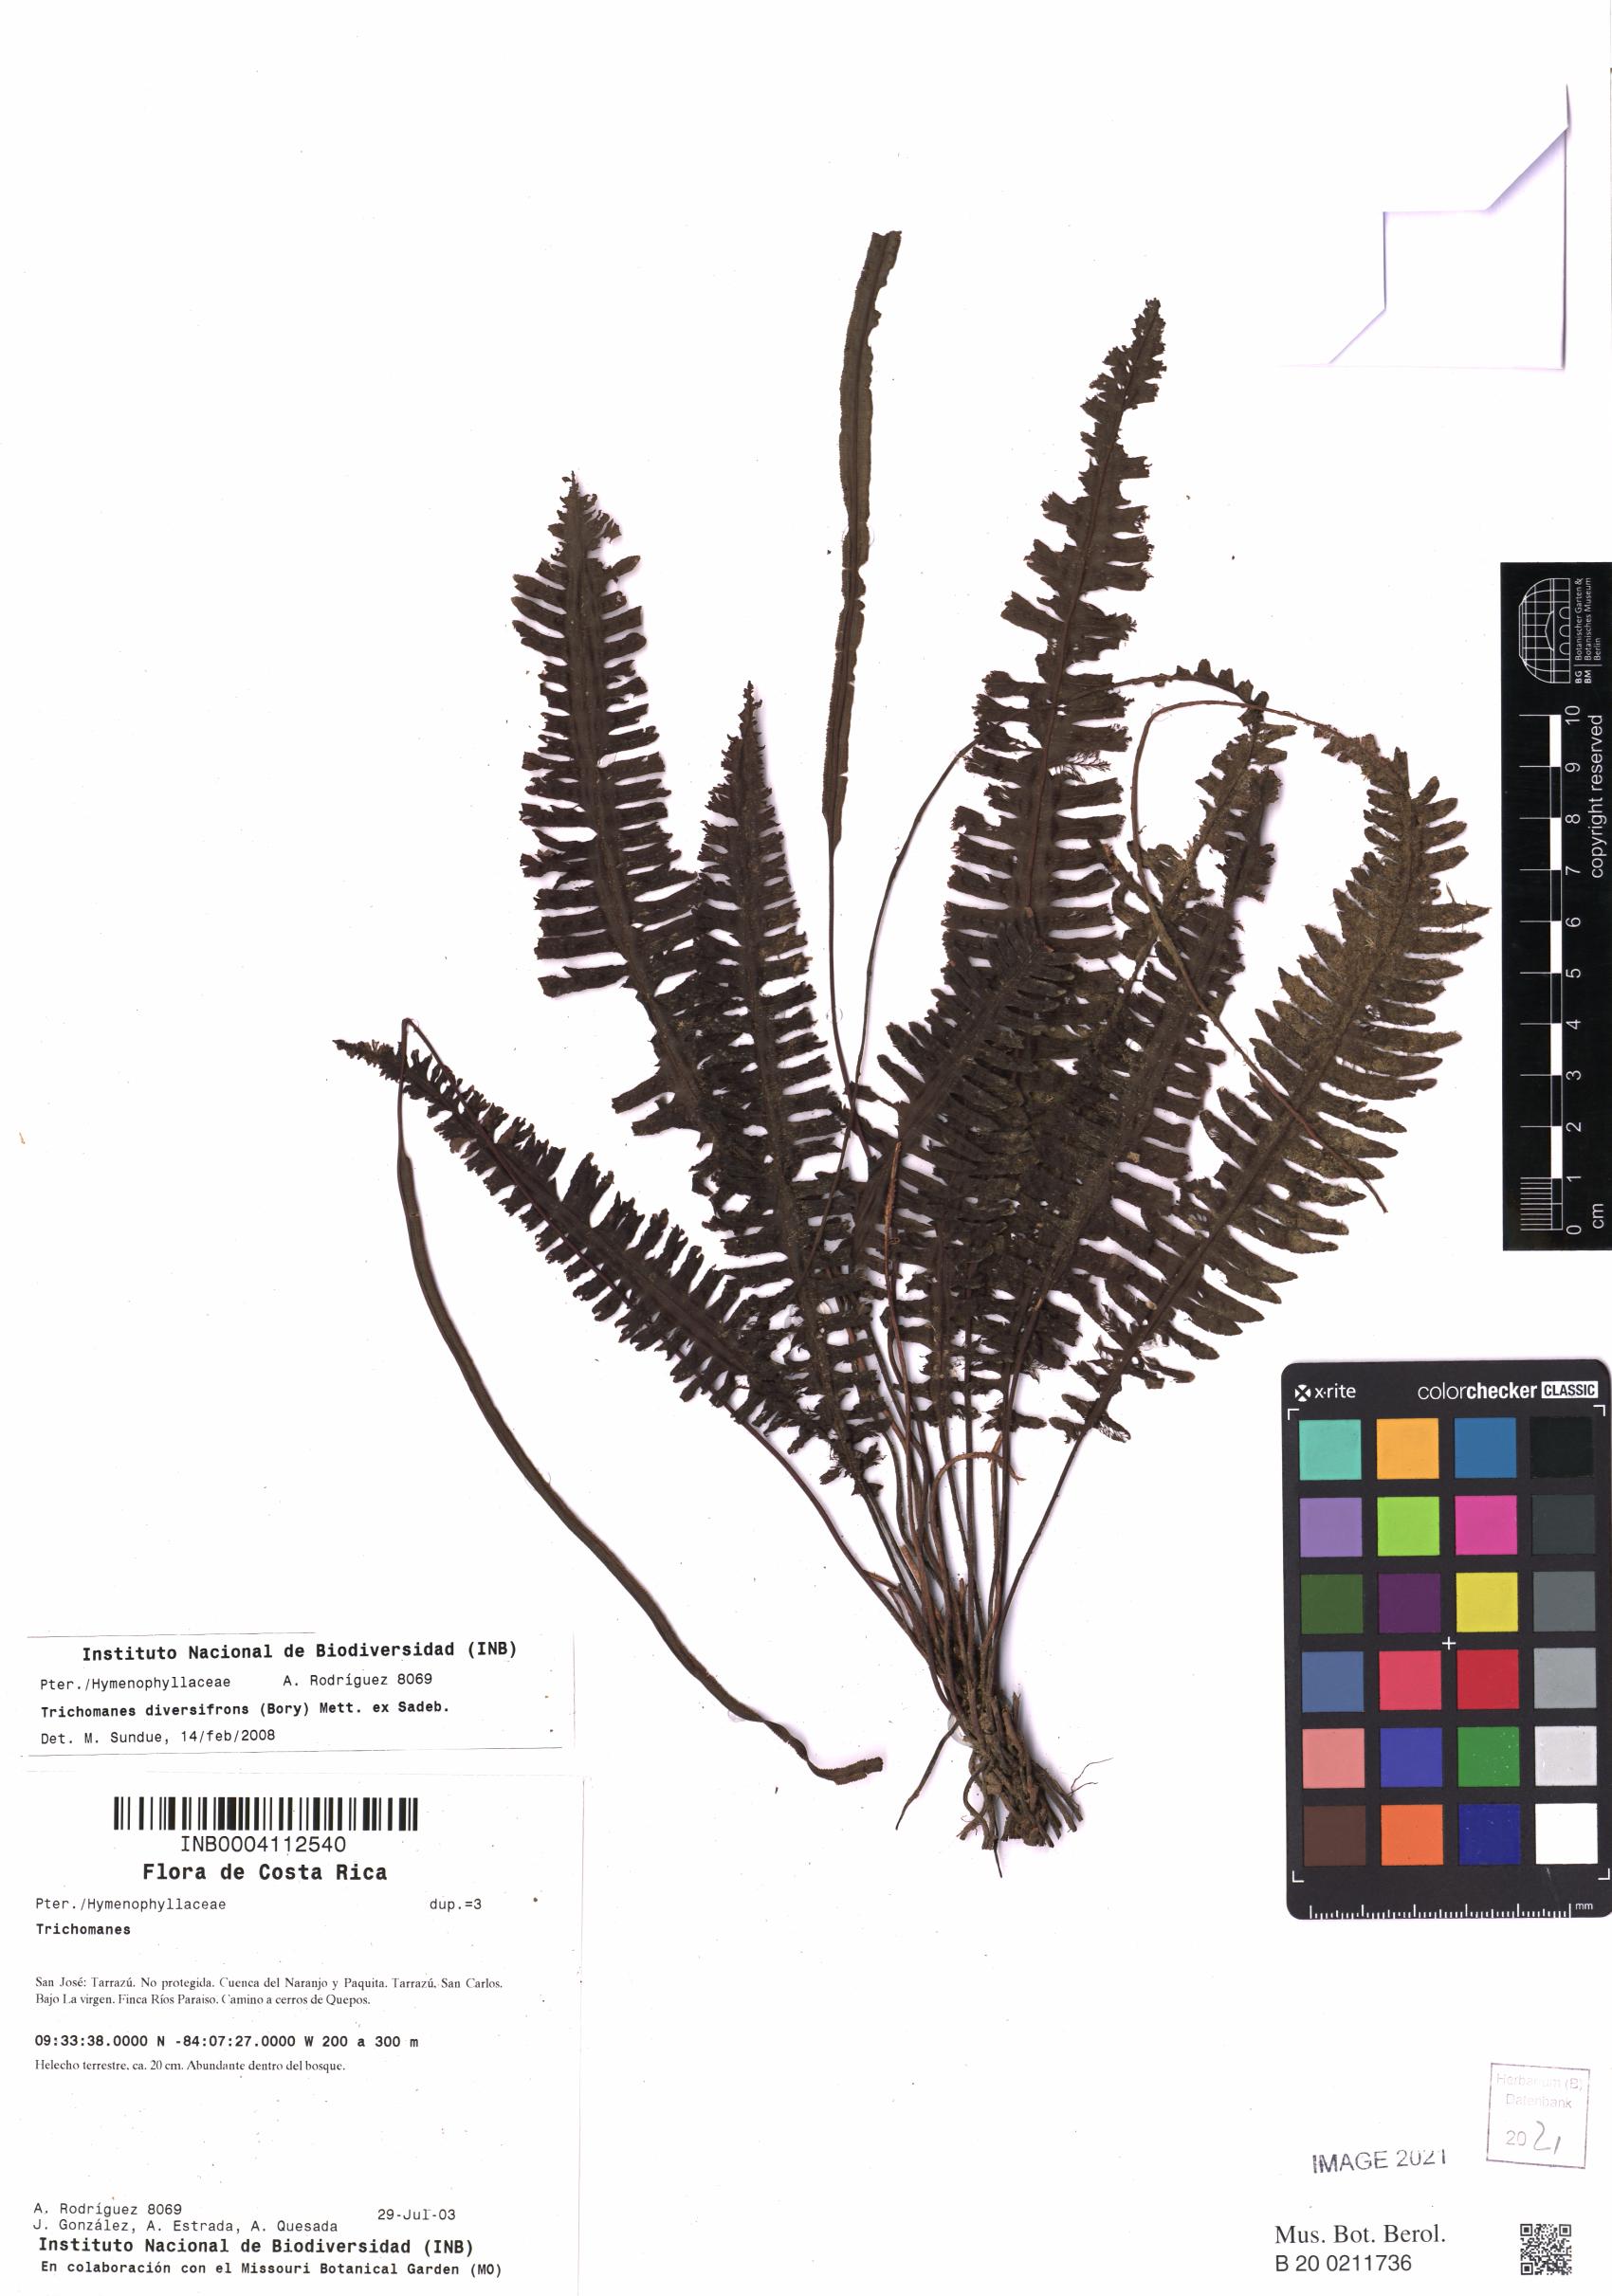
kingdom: Plantae
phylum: Tracheophyta
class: Polypodiopsida
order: Hymenophyllales
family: Hymenophyllaceae
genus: Trichomanes
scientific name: Trichomanes diversifrons
